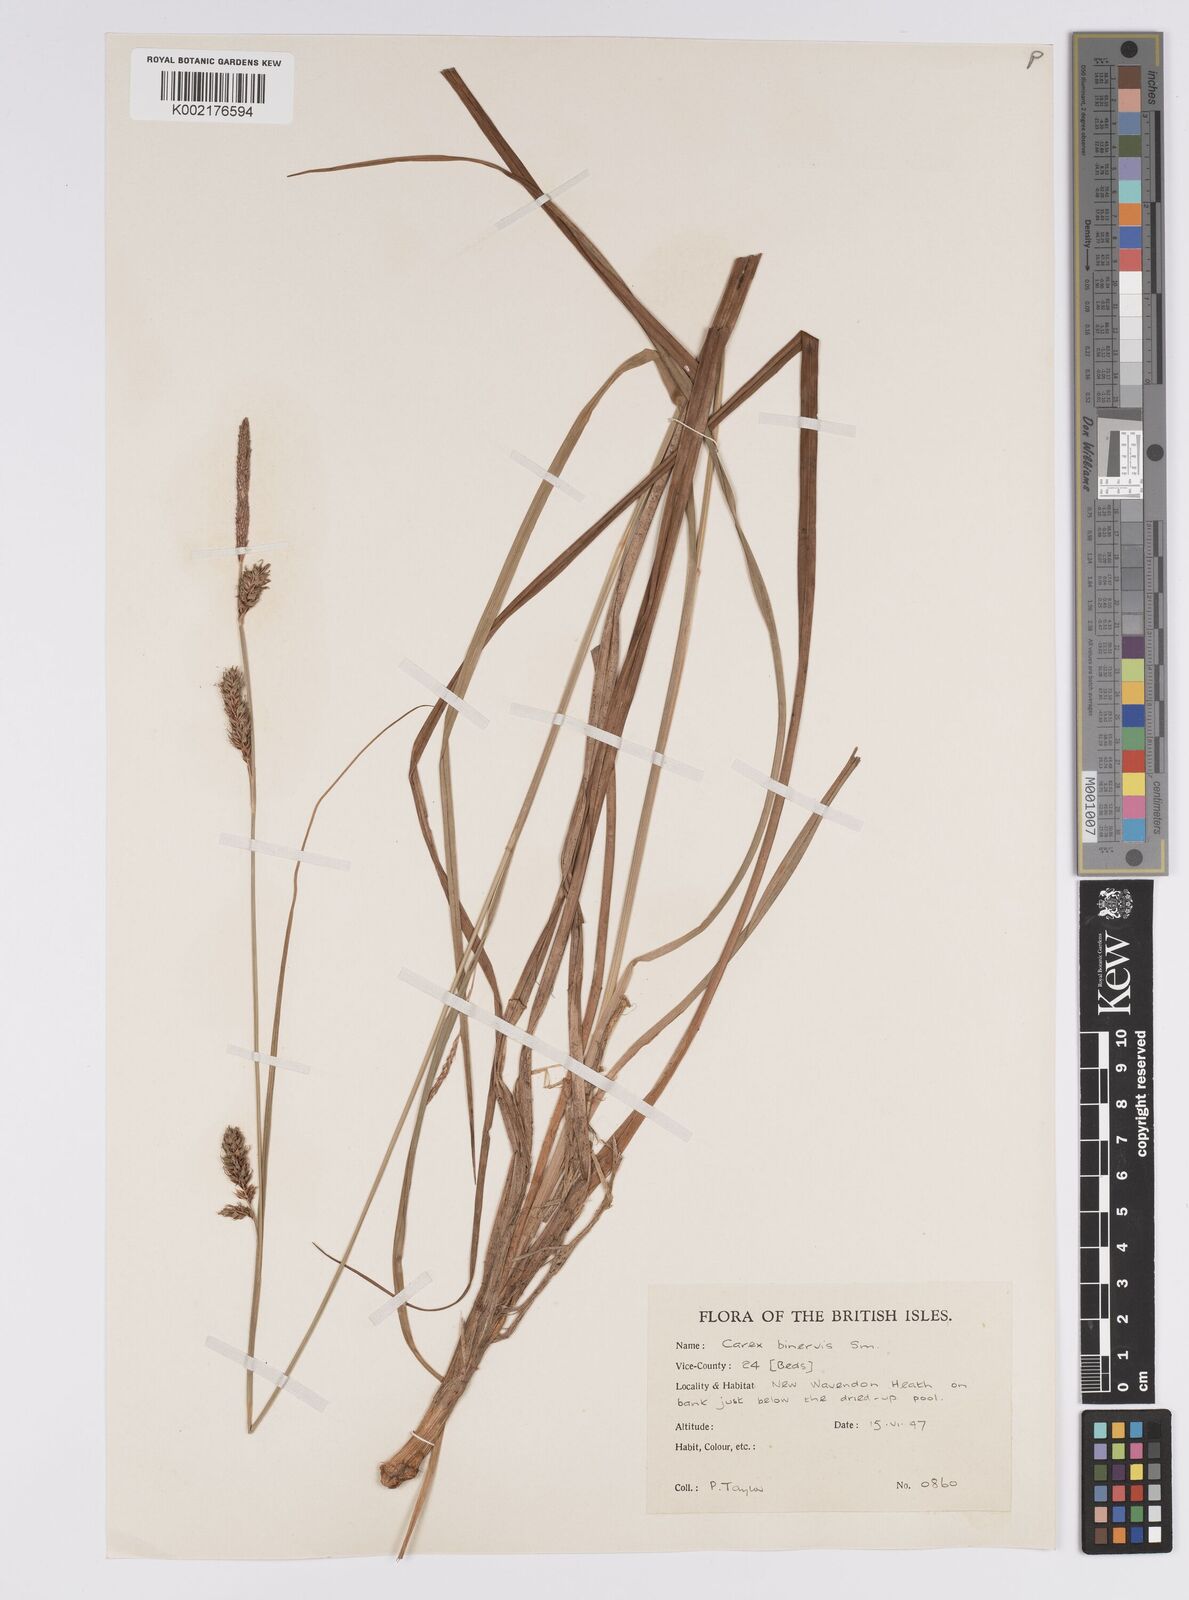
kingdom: Plantae
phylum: Tracheophyta
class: Liliopsida
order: Poales
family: Cyperaceae
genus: Carex
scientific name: Carex binervis
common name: Green-ribbed sedge
